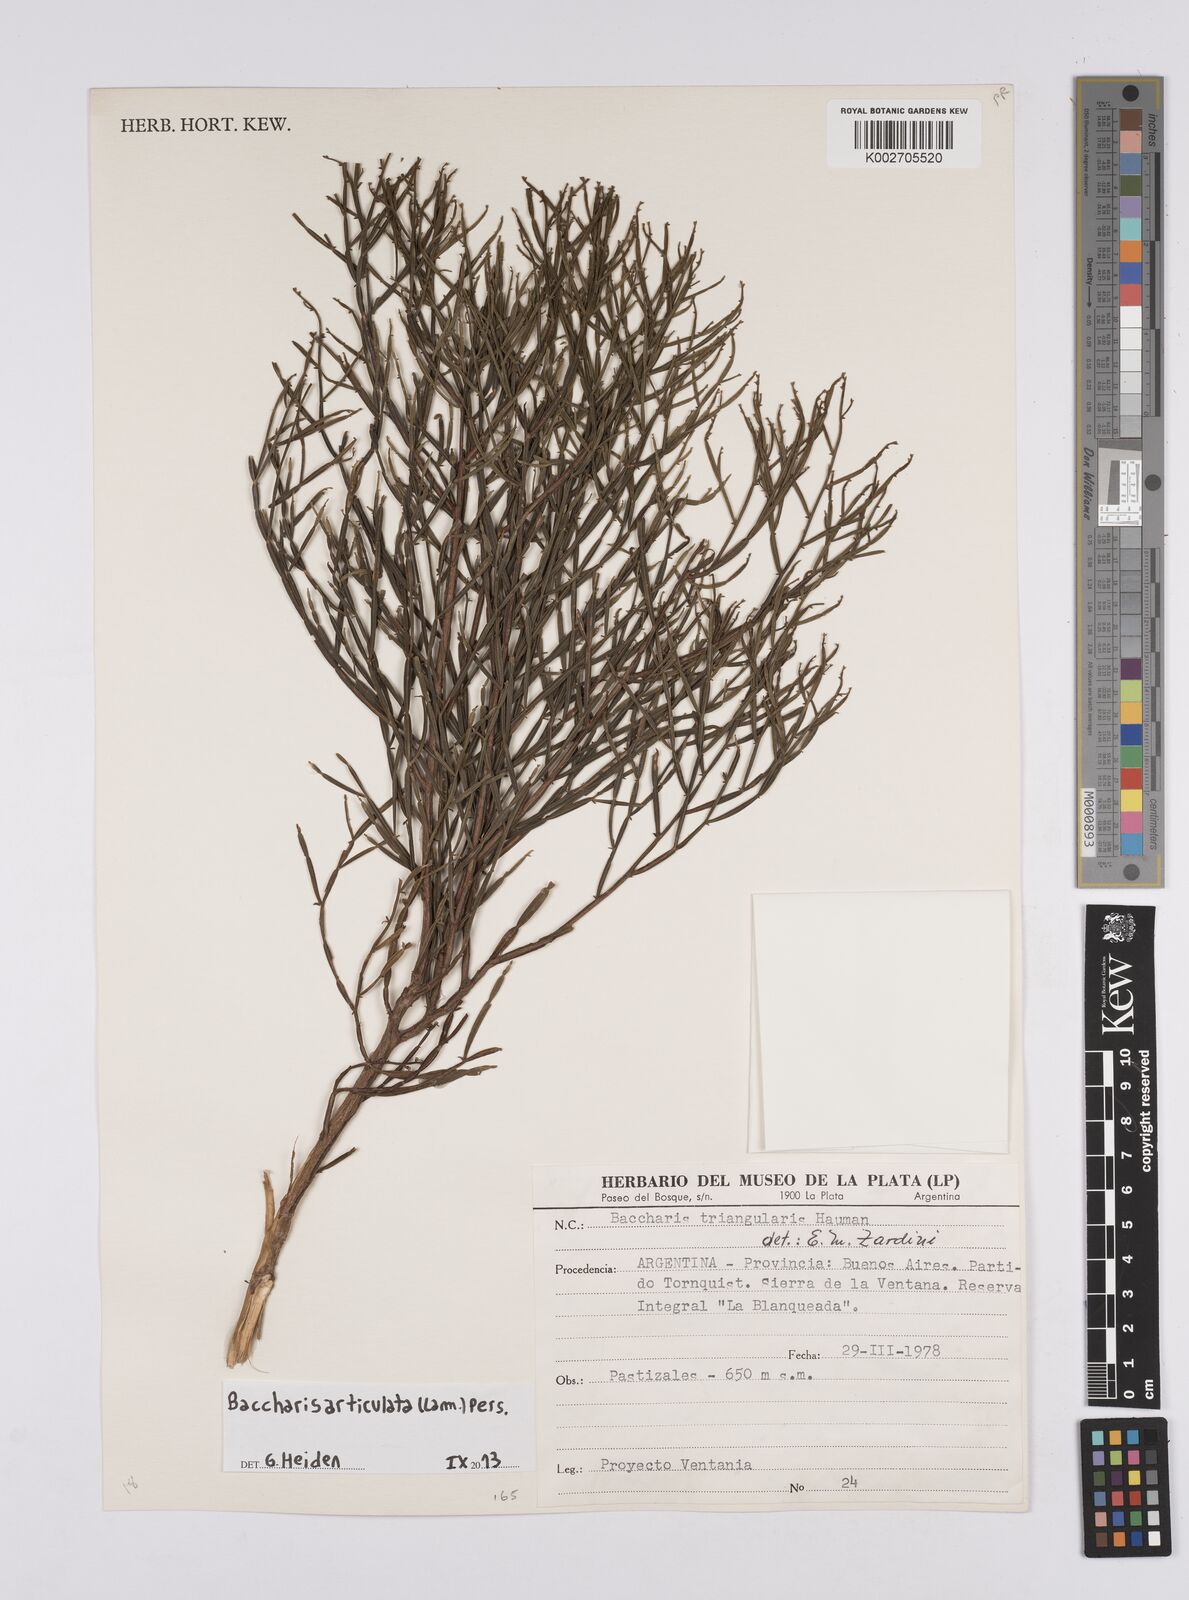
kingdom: Plantae
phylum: Tracheophyta
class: Magnoliopsida
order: Asterales
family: Asteraceae
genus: Baccharis
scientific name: Baccharis articulata
